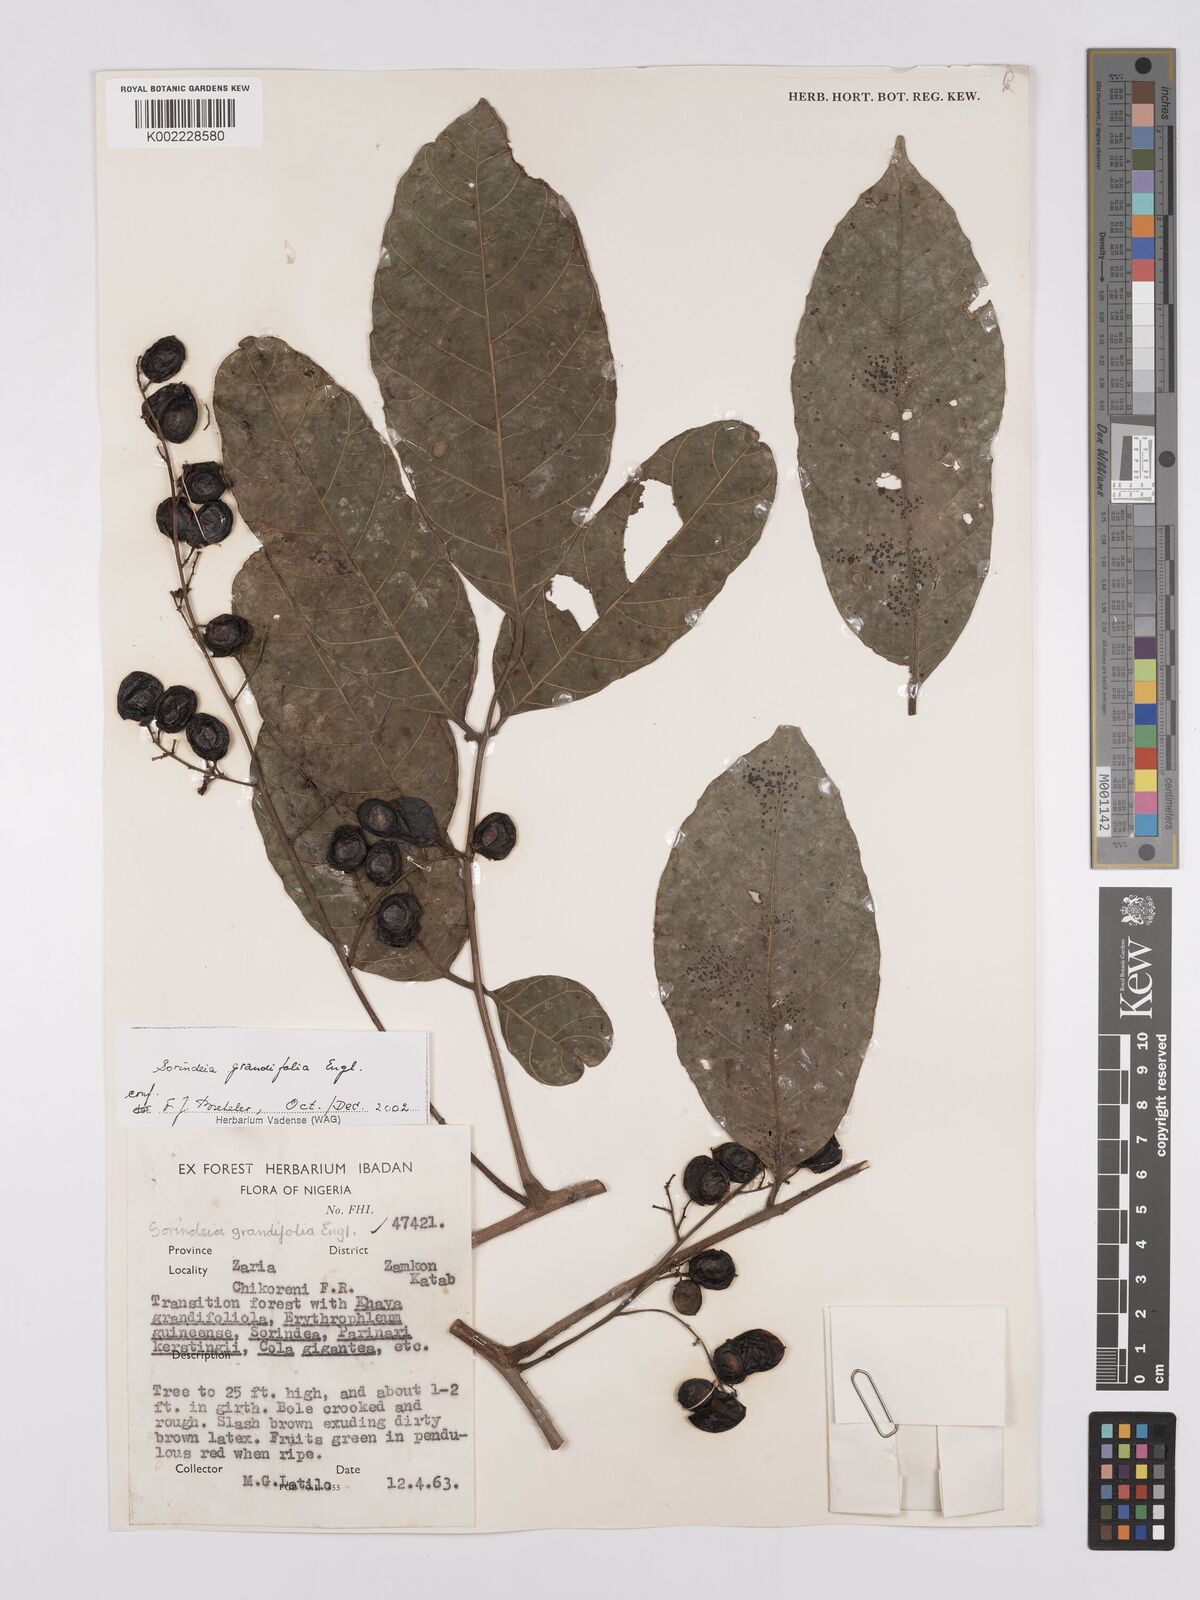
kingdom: Plantae
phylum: Tracheophyta
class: Magnoliopsida
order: Sapindales
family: Anacardiaceae
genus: Sorindeia
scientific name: Sorindeia grandifolia
